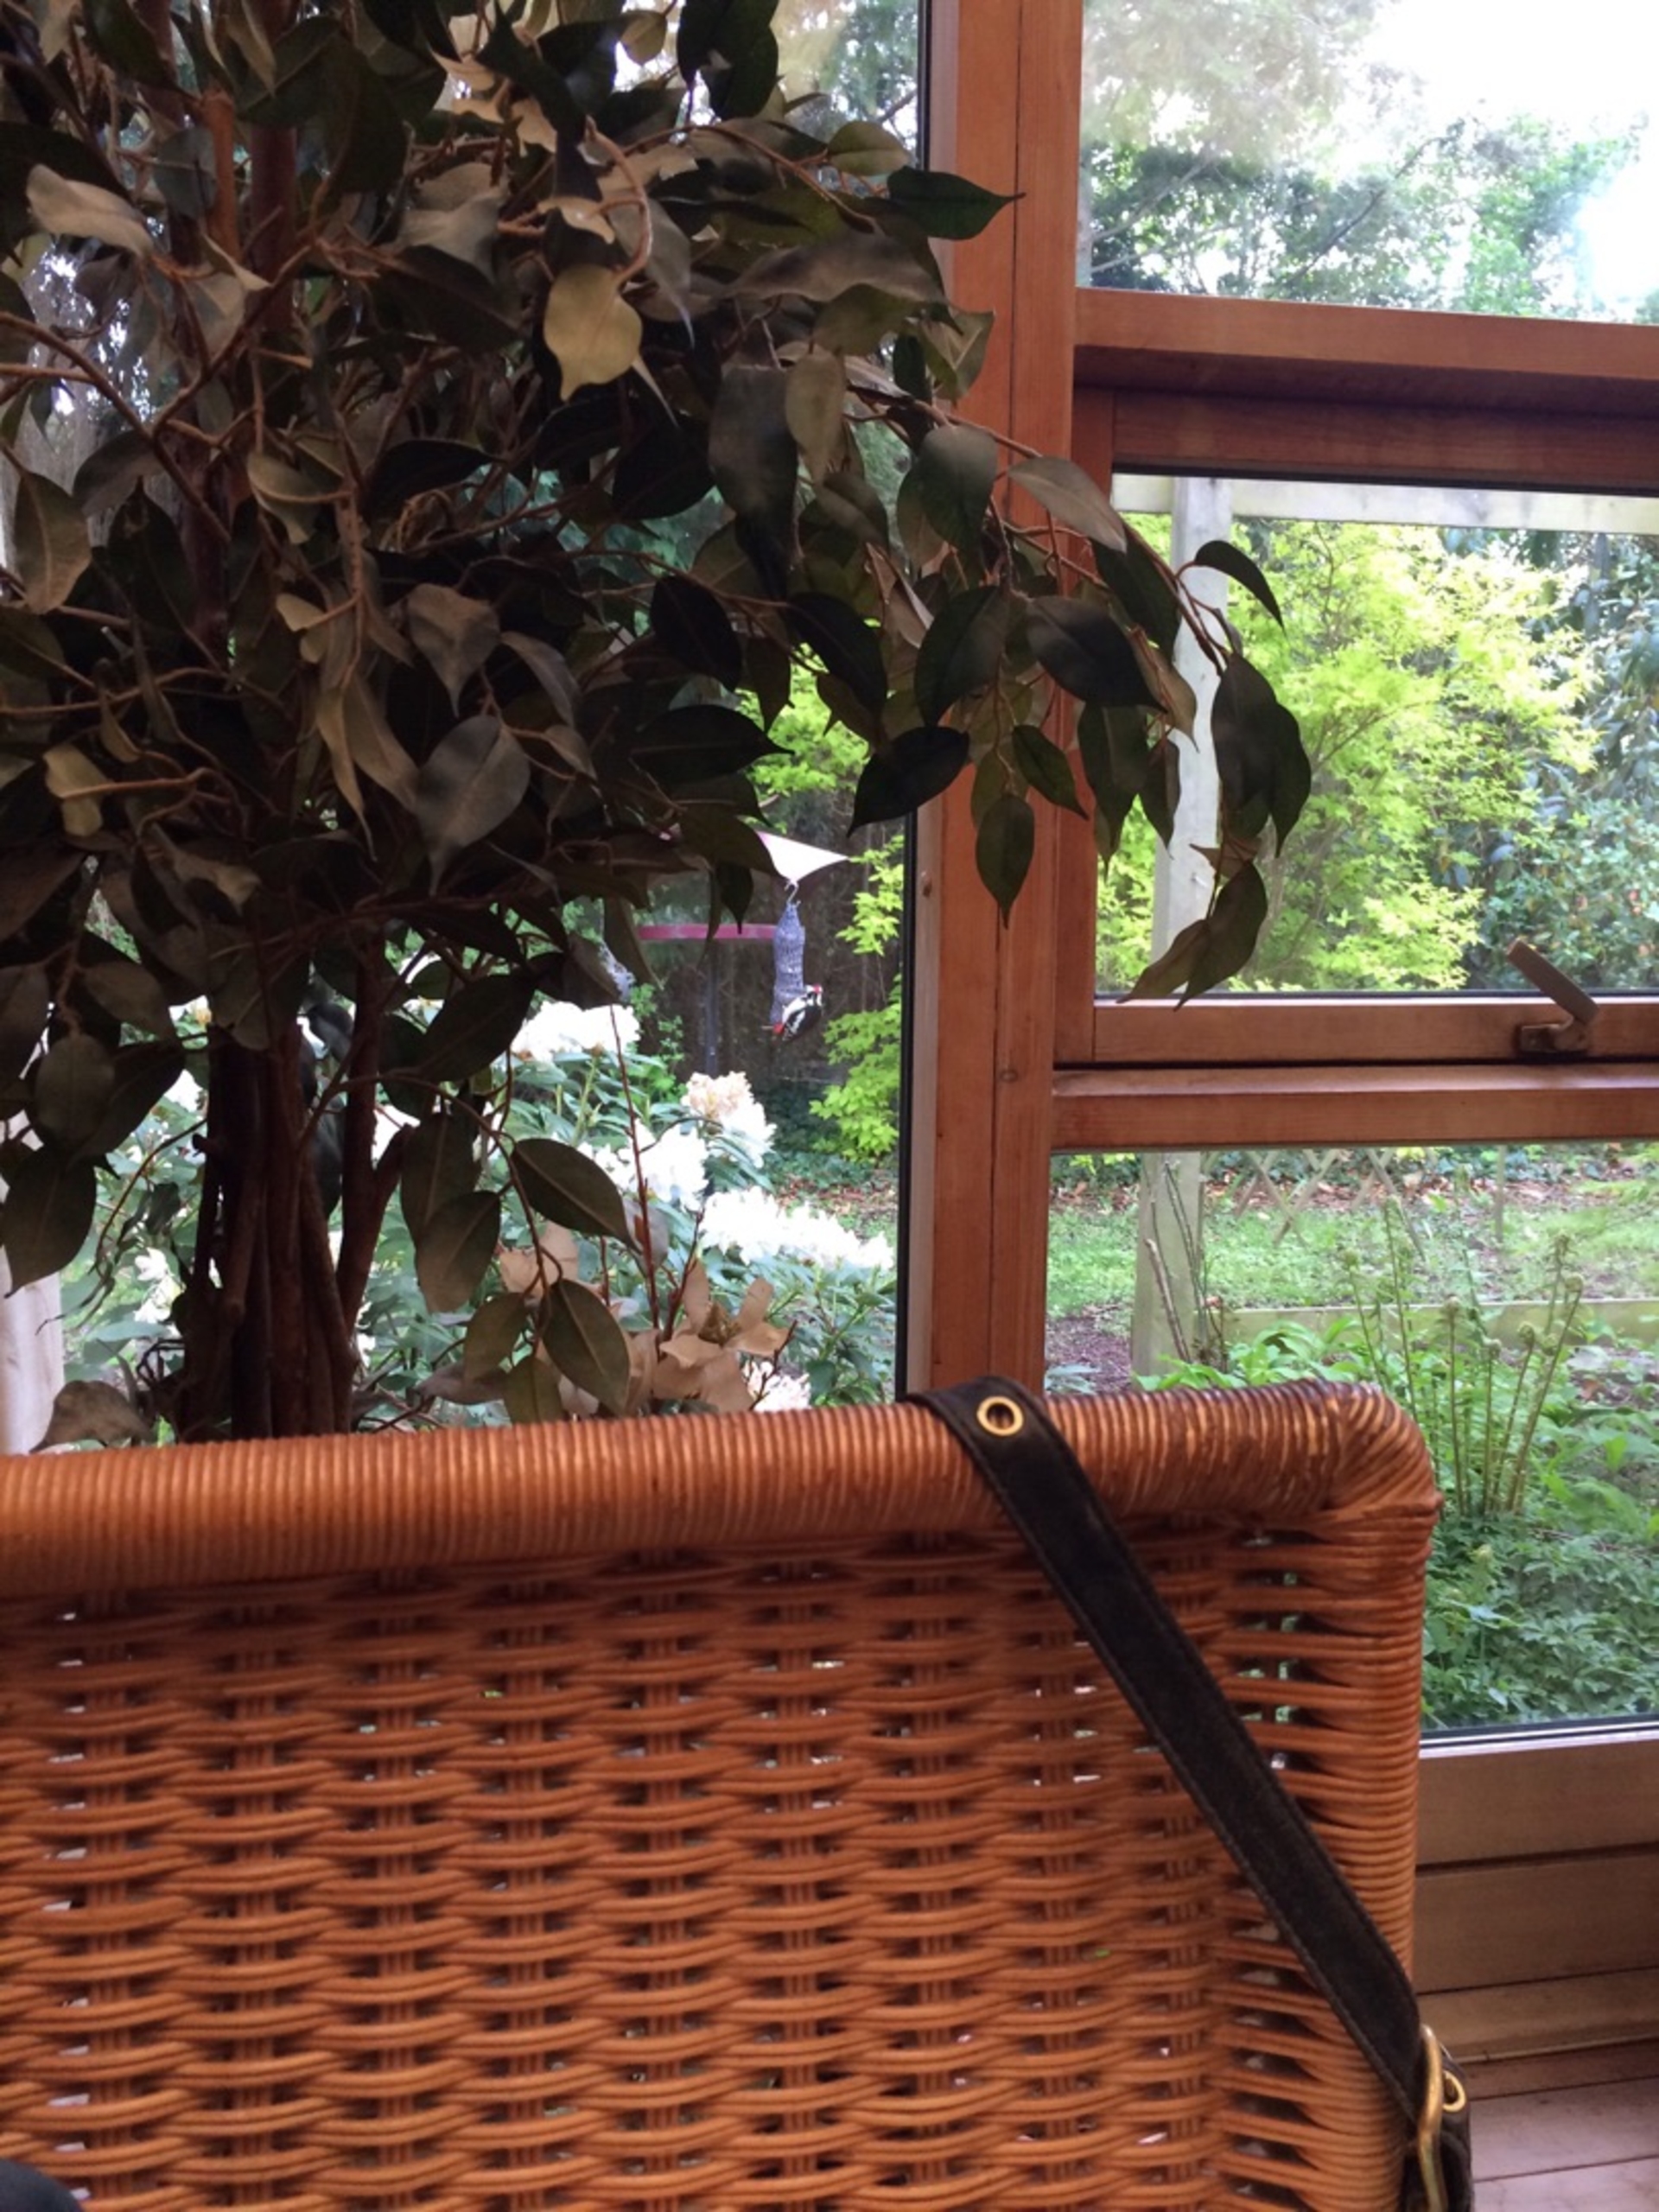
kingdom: Animalia
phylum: Chordata
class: Aves
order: Piciformes
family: Picidae
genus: Dendrocopos
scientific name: Dendrocopos major
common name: Stor flagspætte
